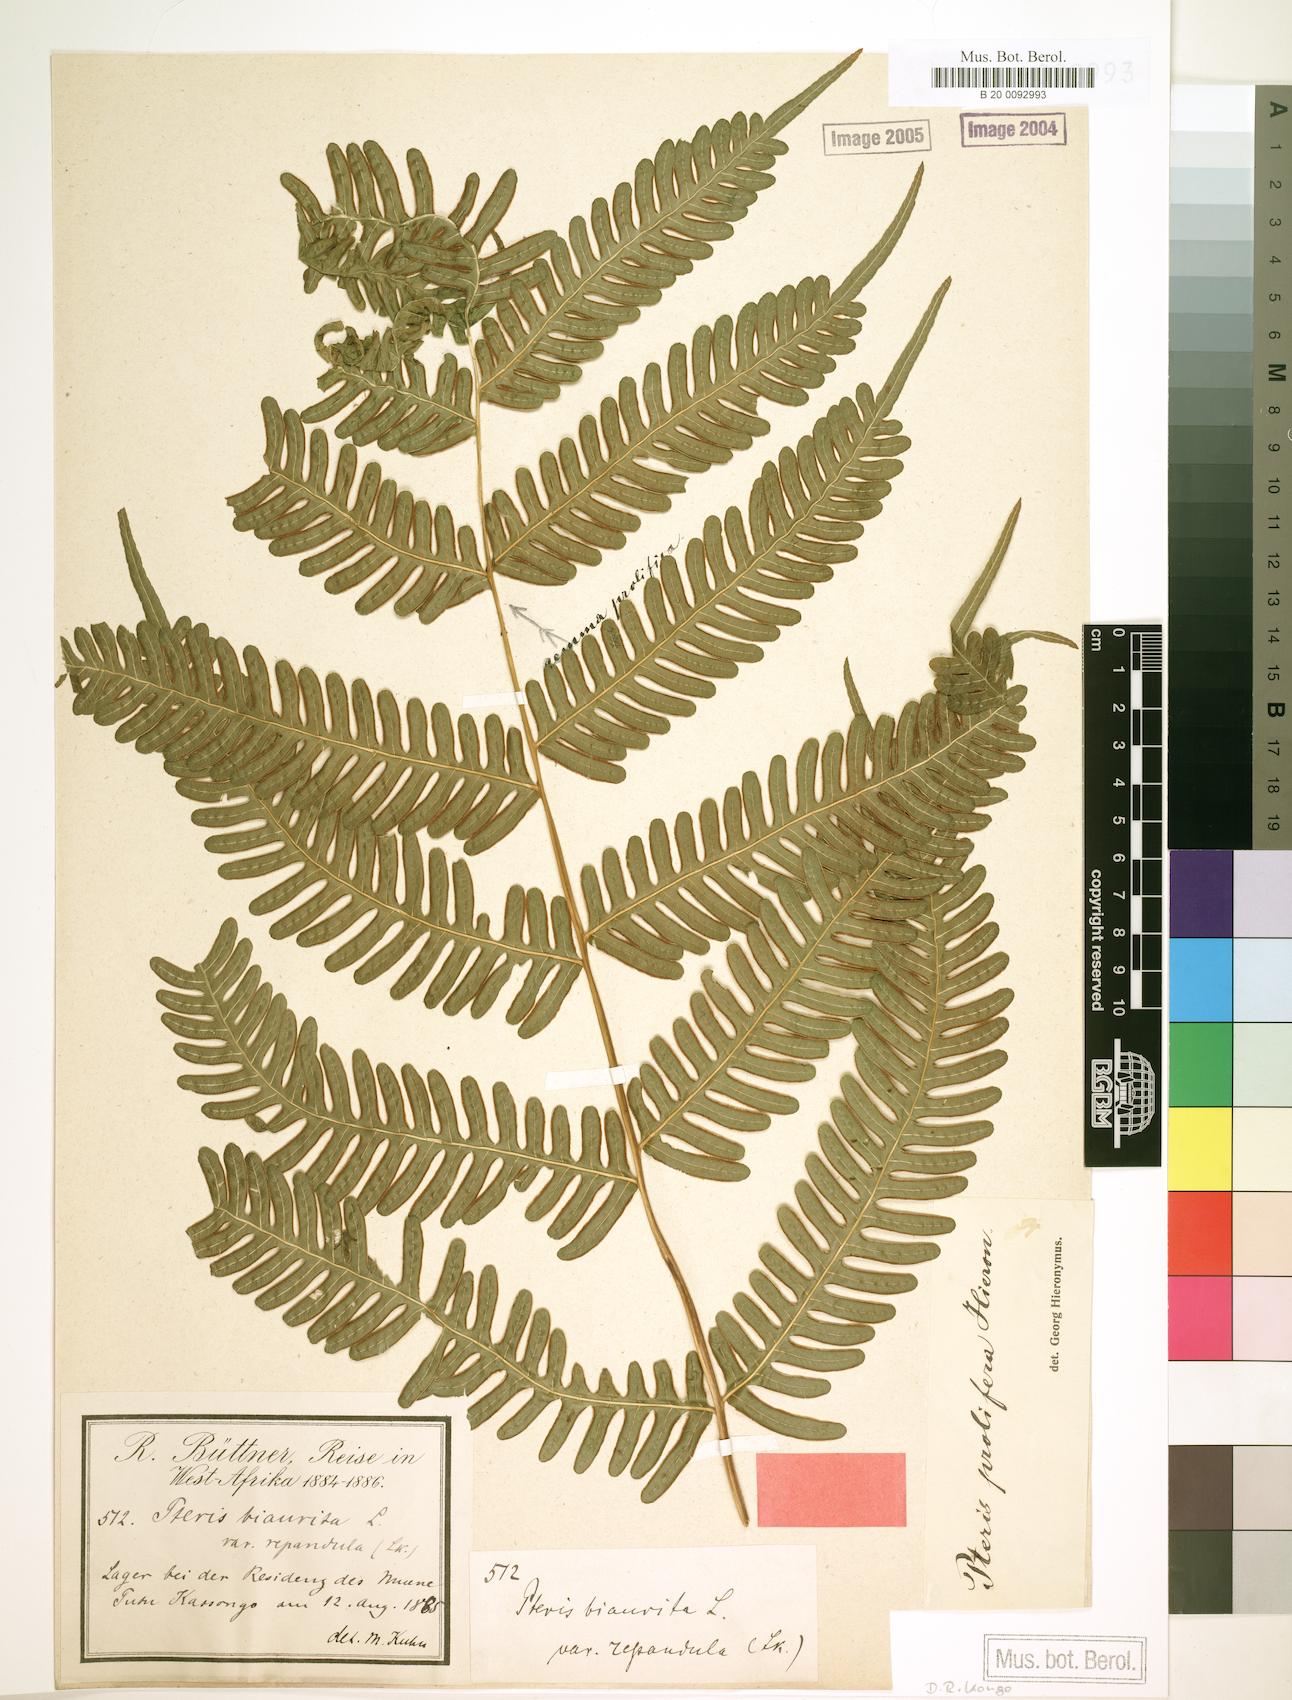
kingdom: Plantae
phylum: Tracheophyta
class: Polypodiopsida
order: Polypodiales
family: Pteridaceae
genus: Pteris
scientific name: Pteris preussii
